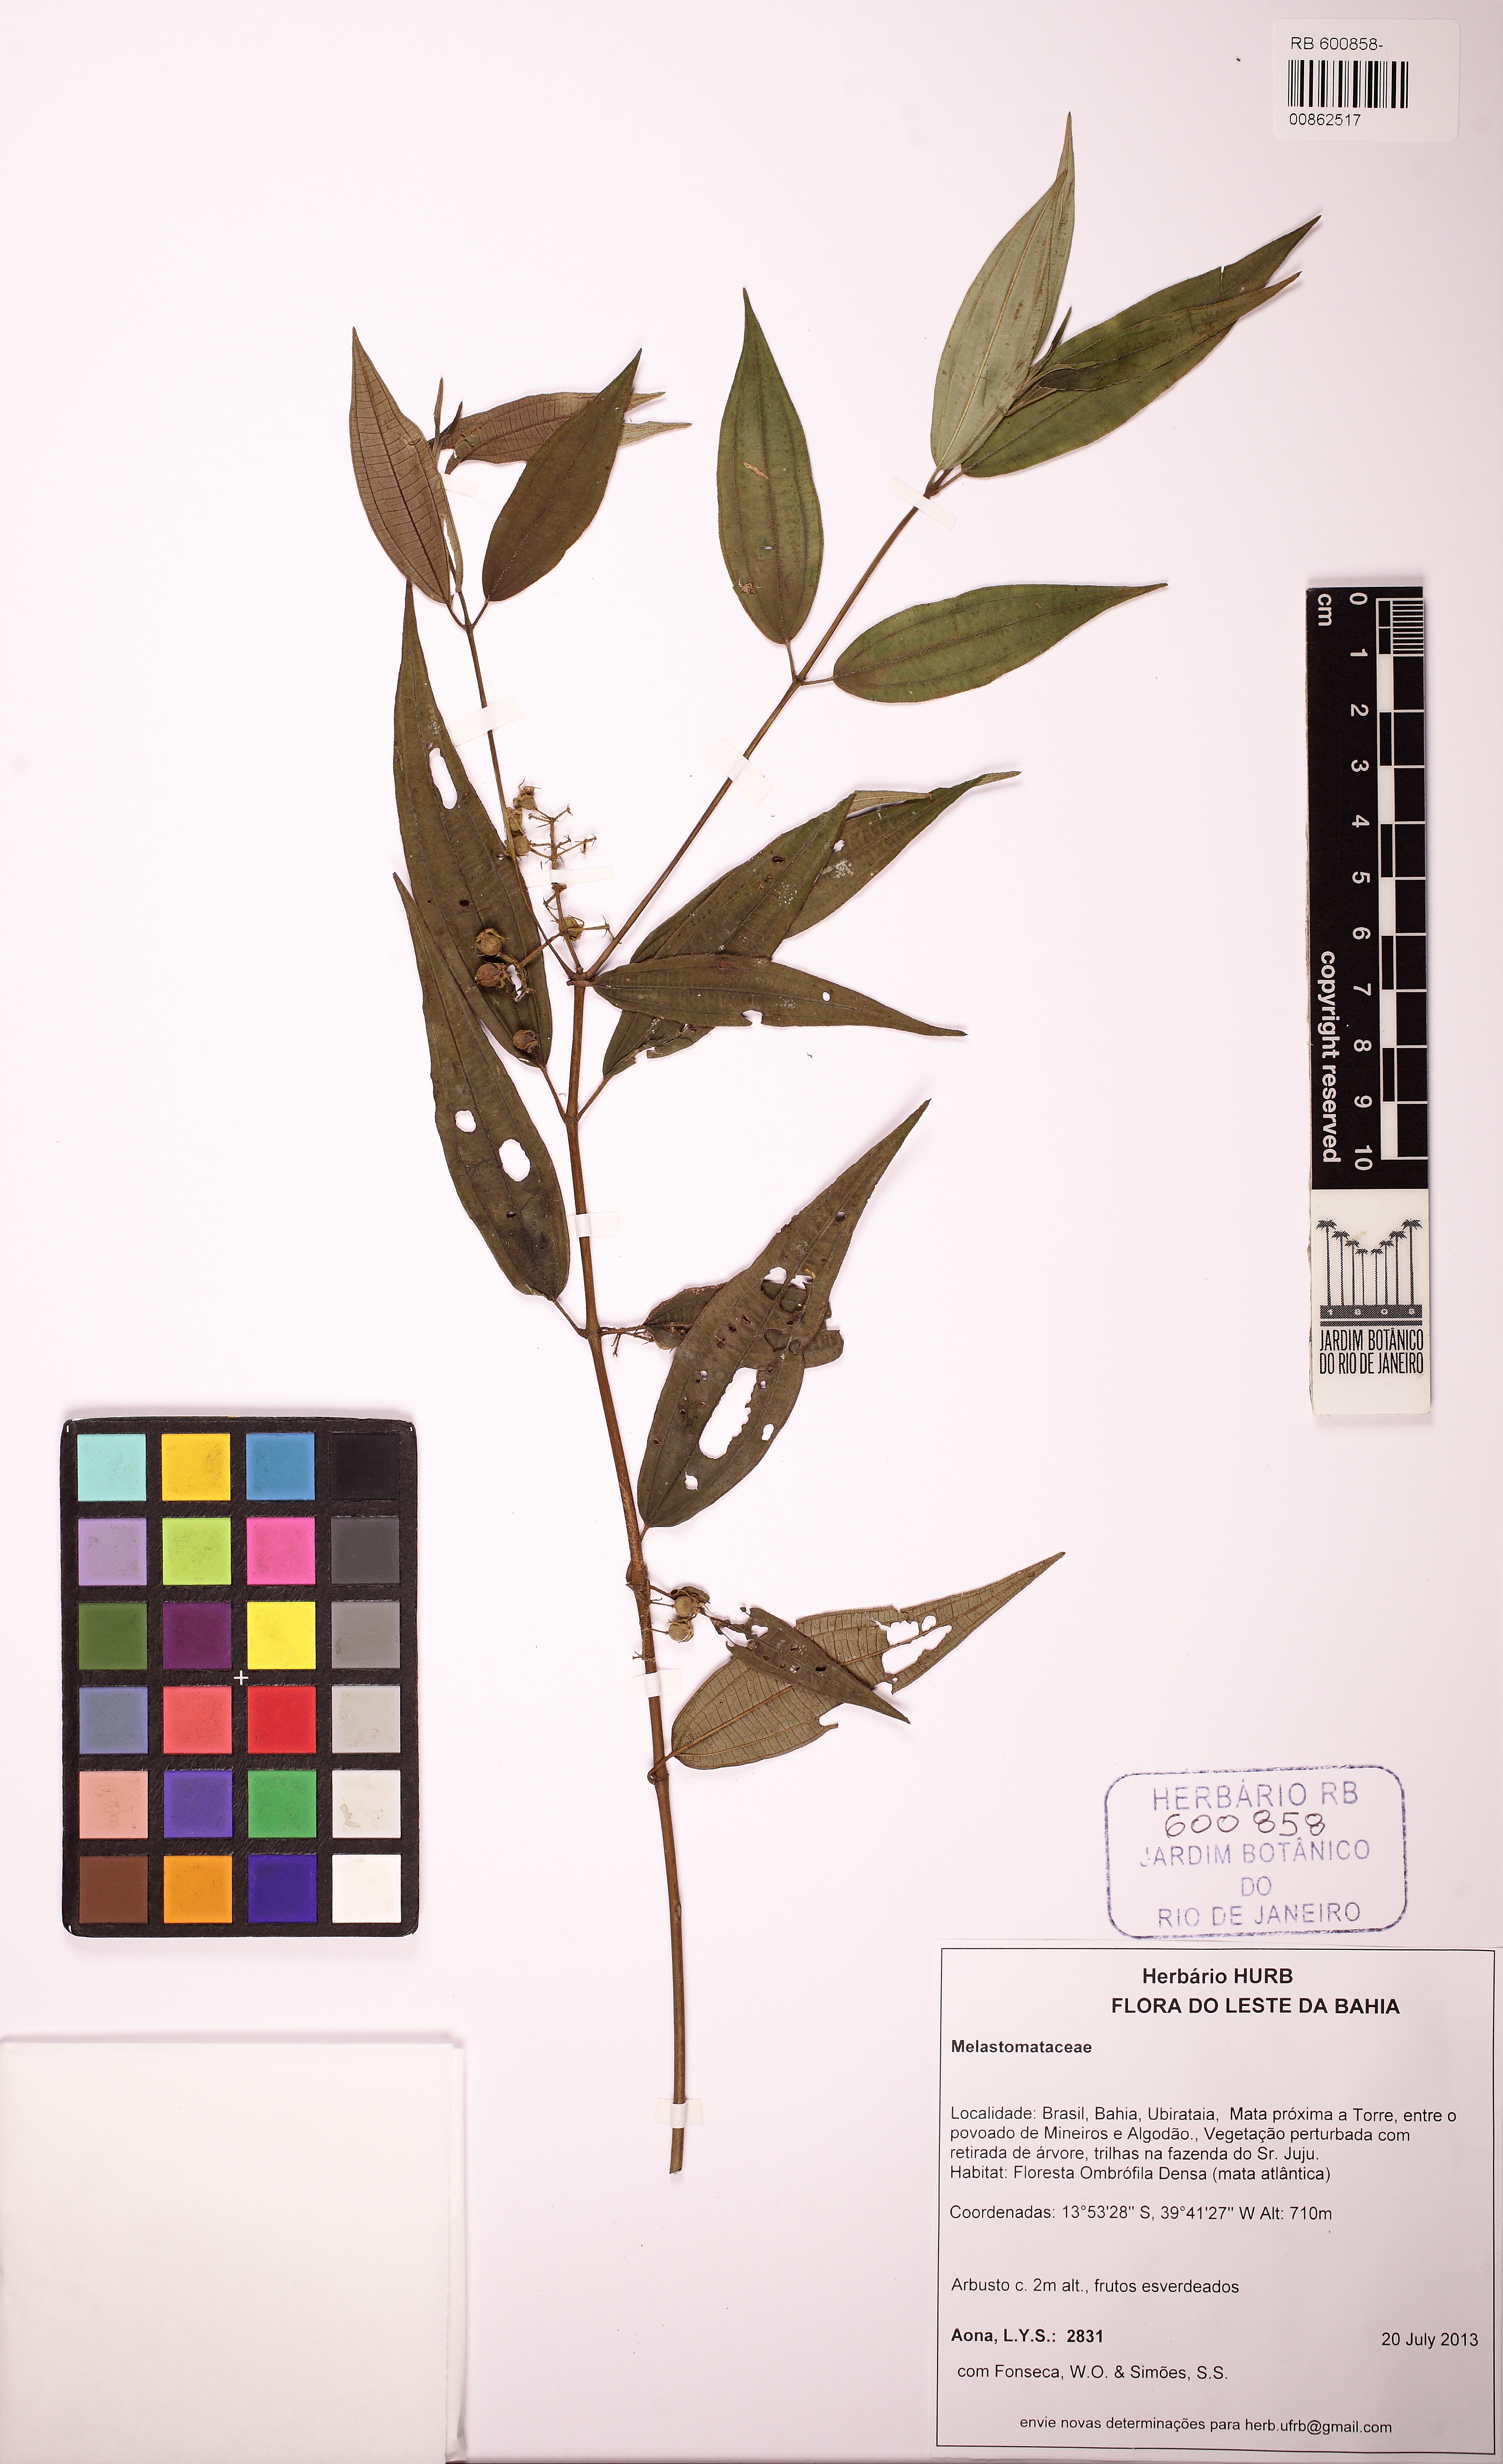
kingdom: Plantae
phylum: Tracheophyta
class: Magnoliopsida
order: Myrtales
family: Melastomataceae
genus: Tibouchina
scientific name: Tibouchina
